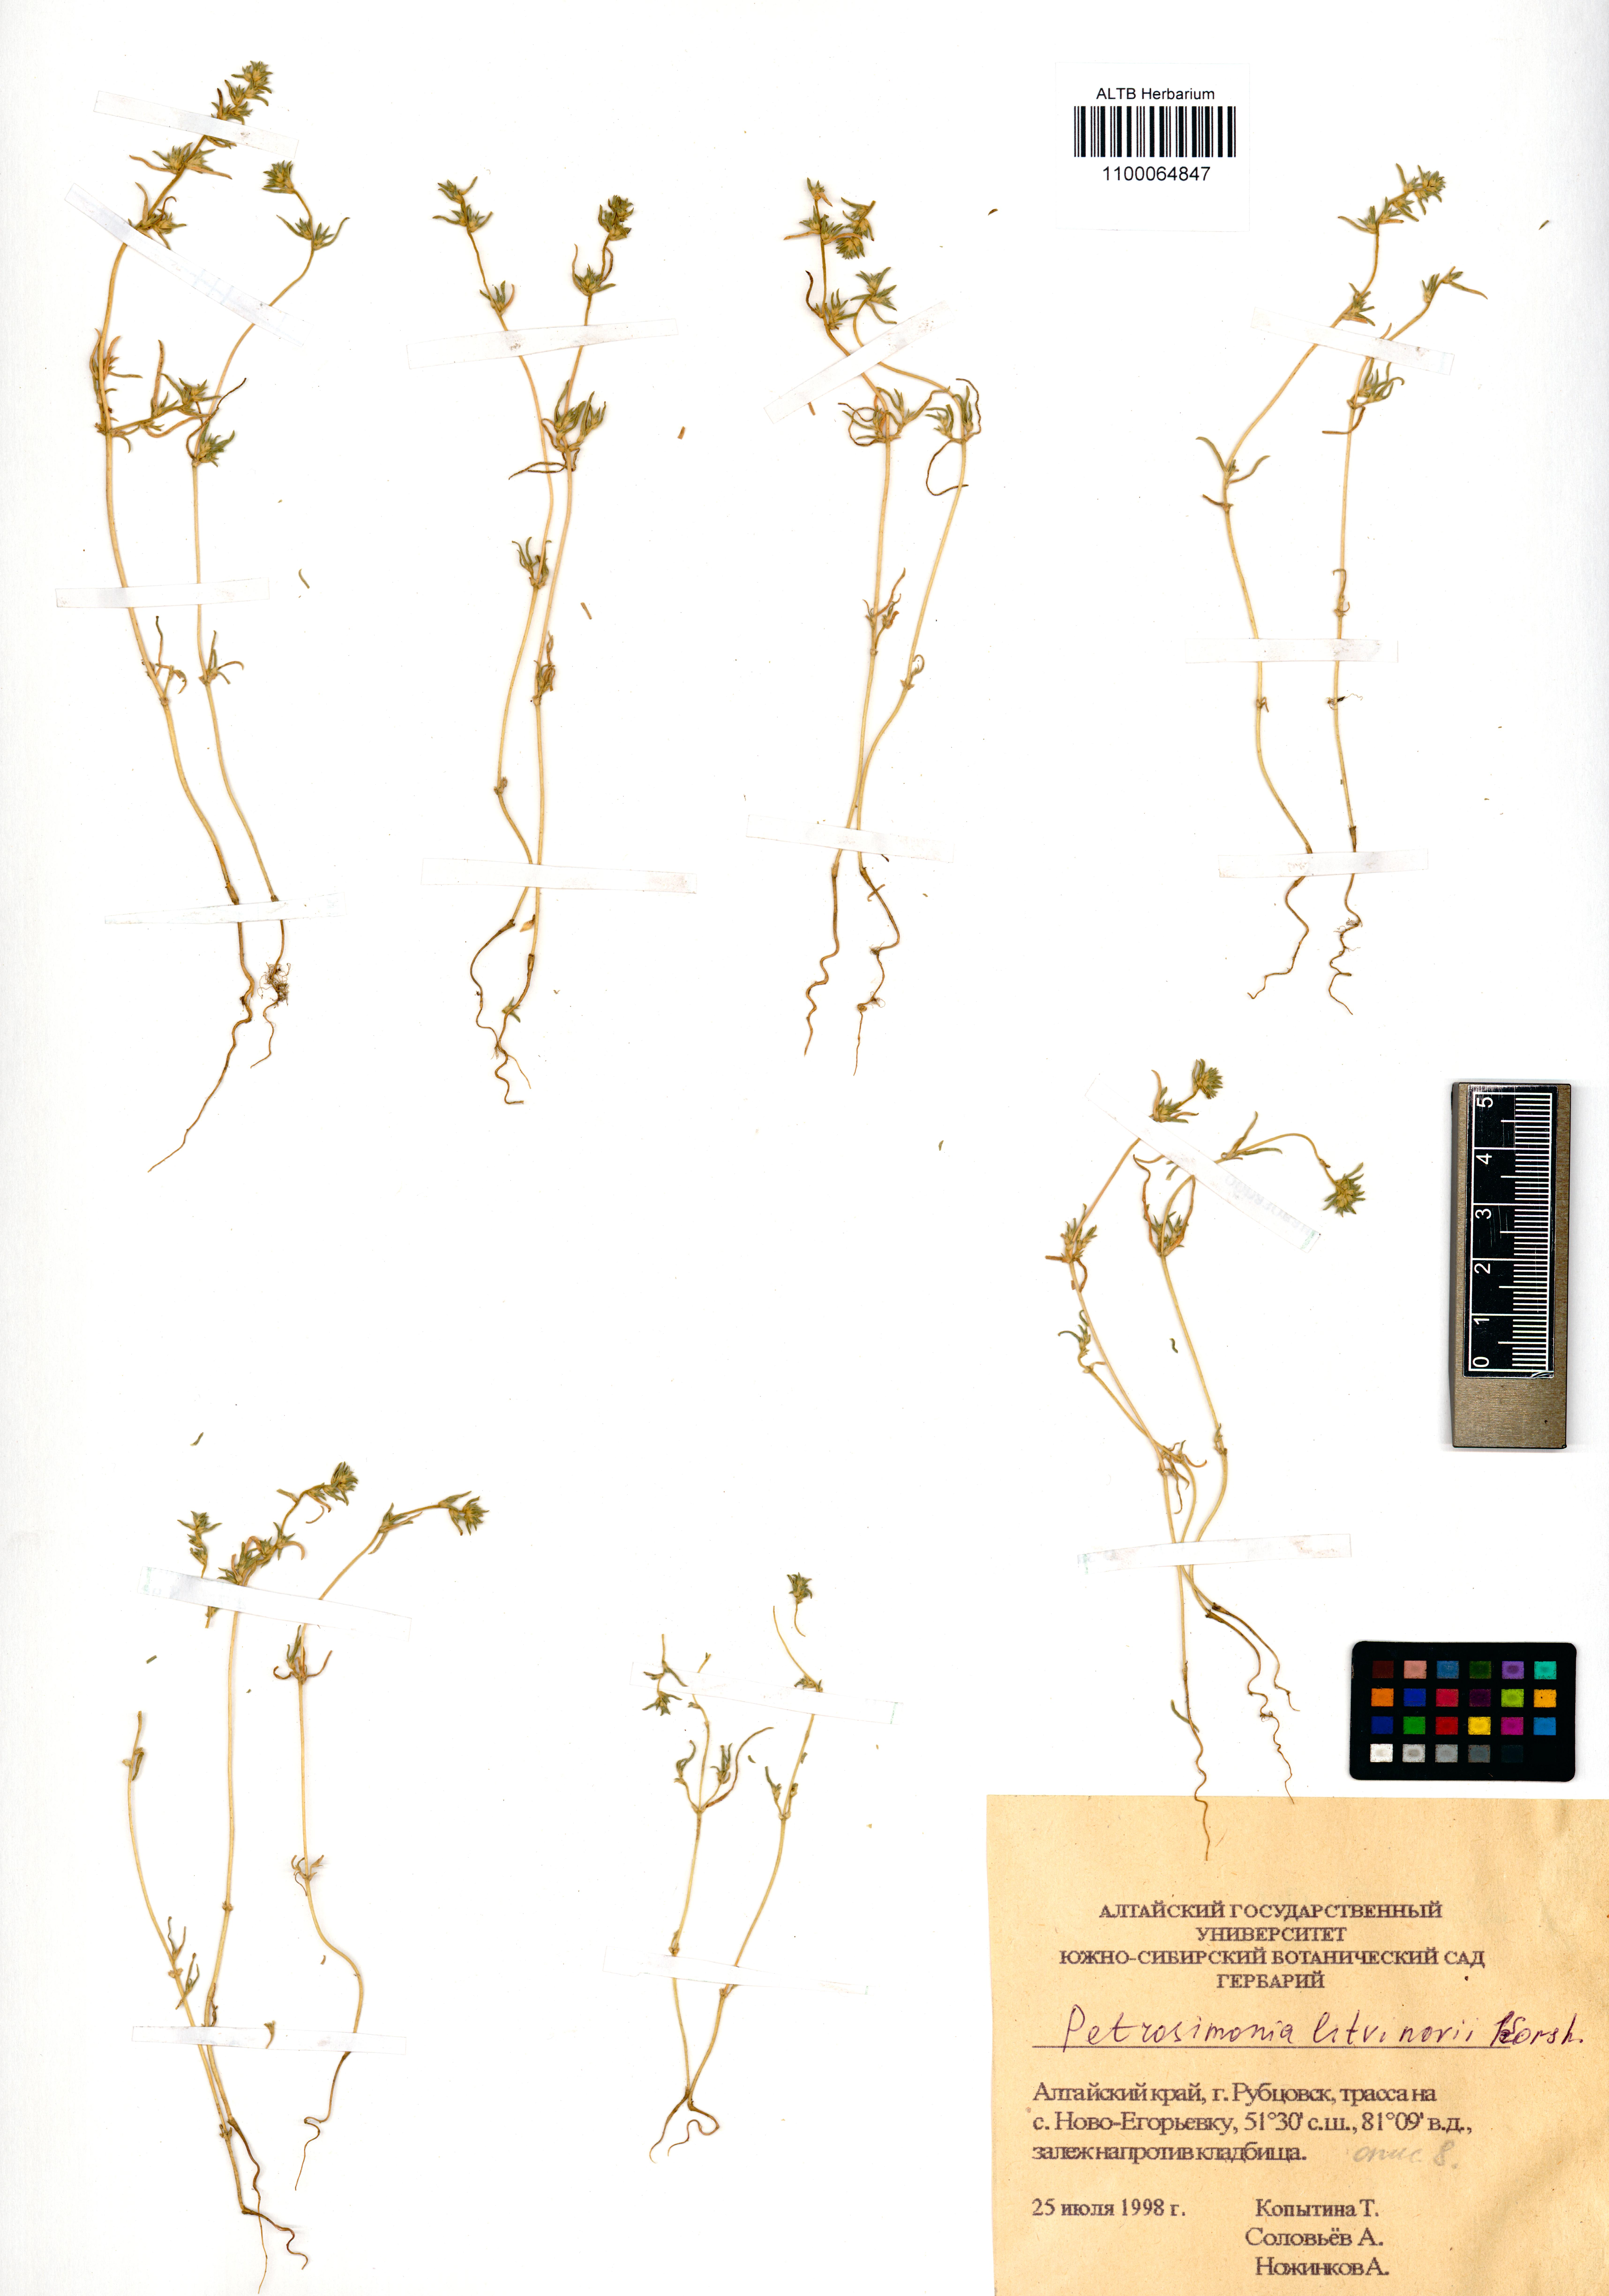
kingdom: Plantae
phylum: Tracheophyta
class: Magnoliopsida
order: Caryophyllales
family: Amaranthaceae
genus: Petrosimonia
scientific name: Petrosimonia litvinowi
